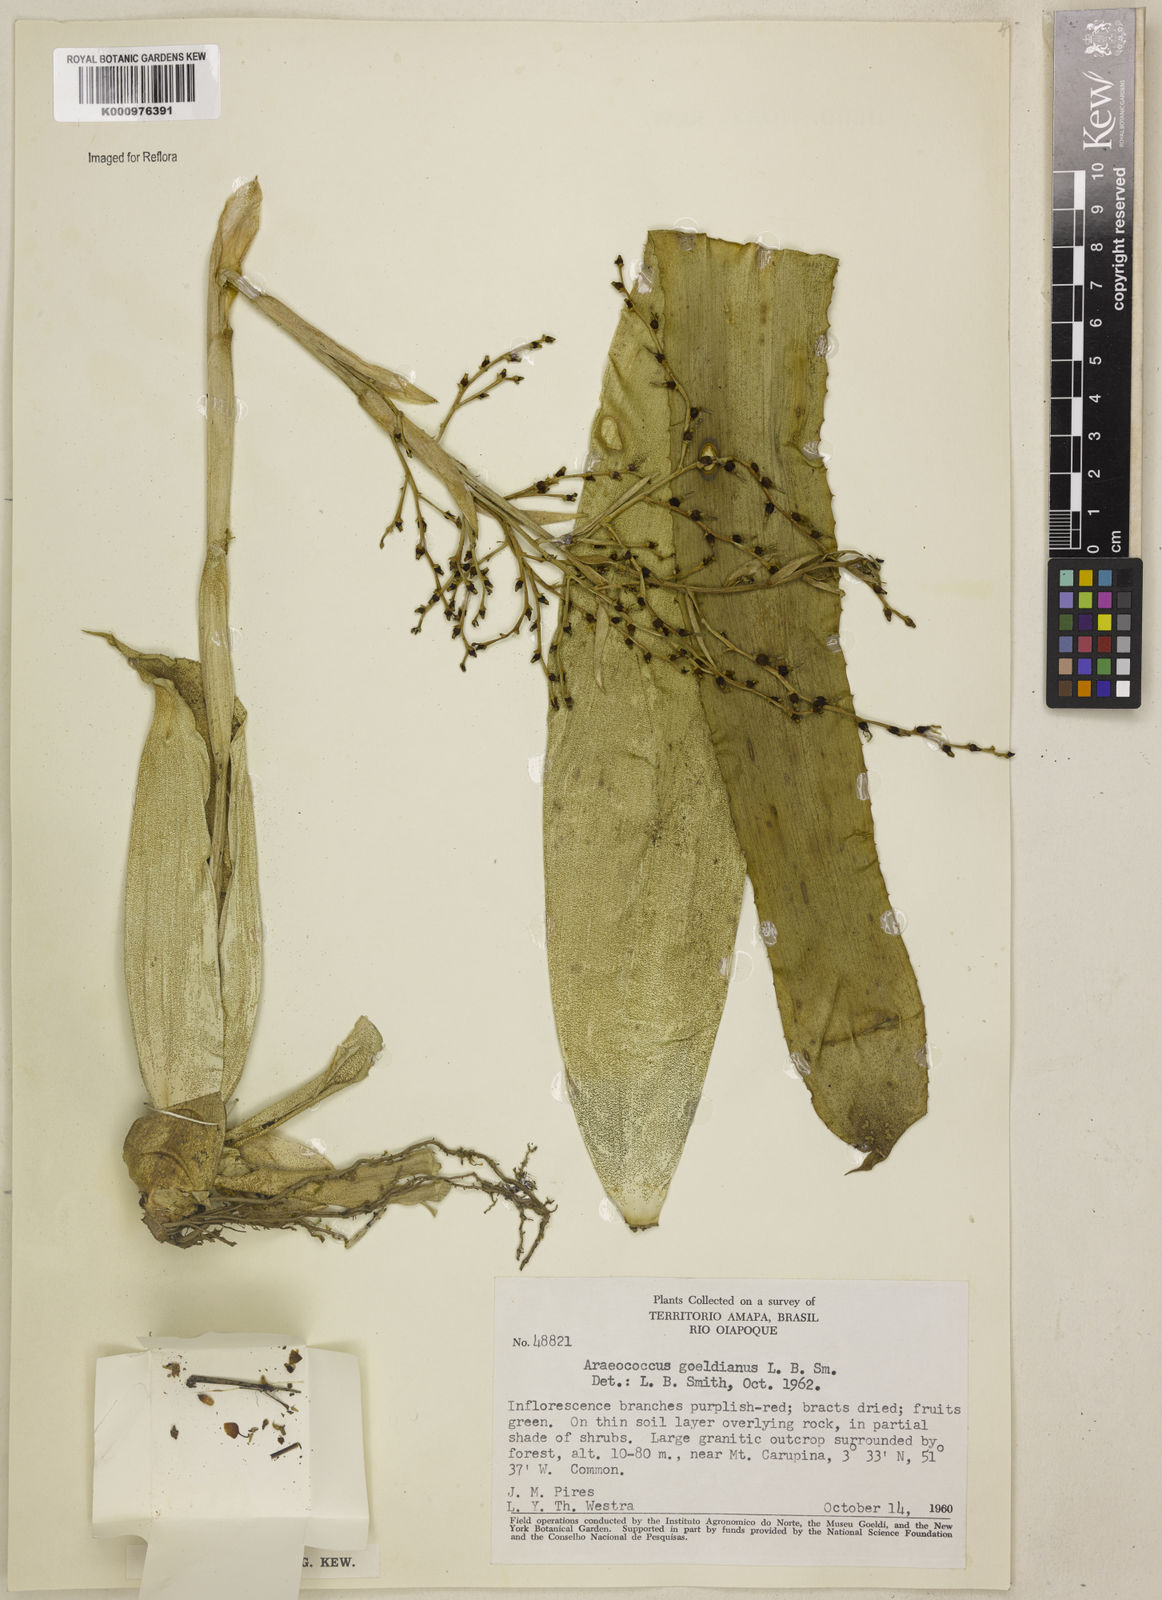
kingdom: Plantae
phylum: Tracheophyta
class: Liliopsida
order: Poales
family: Bromeliaceae
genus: Araeococcus
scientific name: Araeococcus goeldianus
